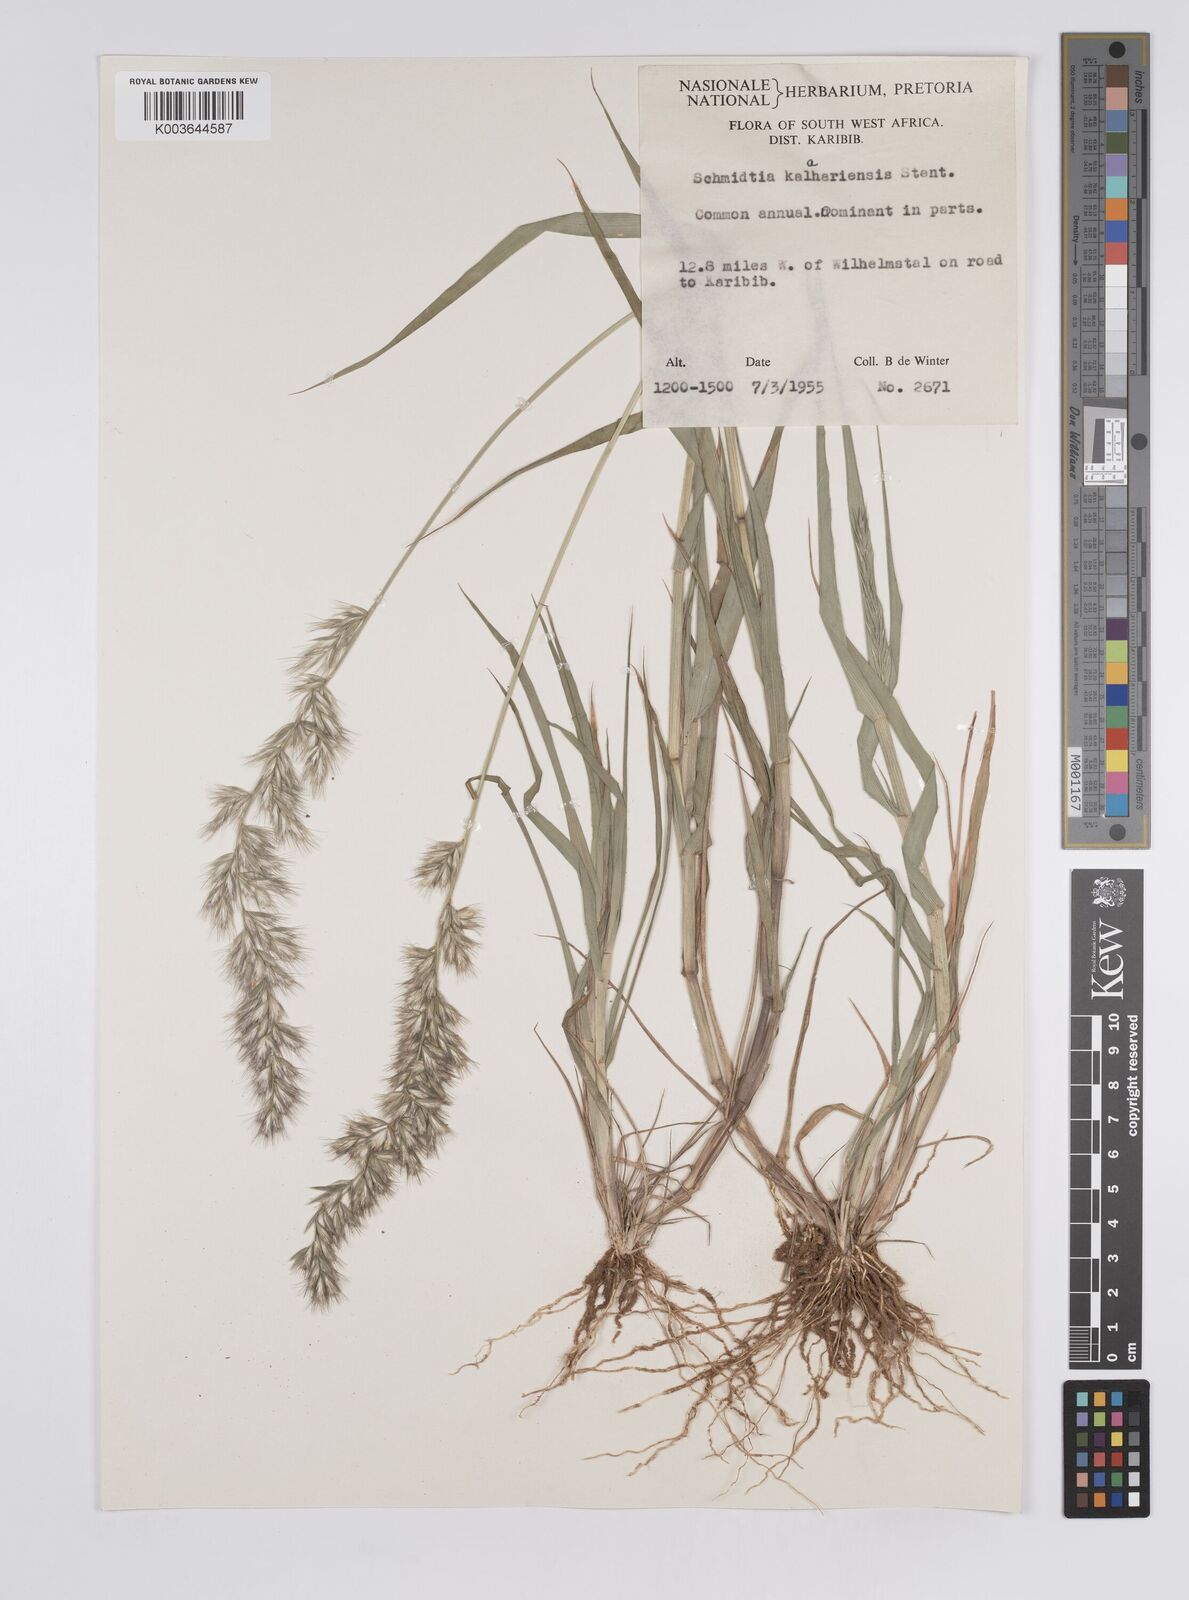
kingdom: Plantae
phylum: Tracheophyta
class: Liliopsida
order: Poales
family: Poaceae
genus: Schmidtia
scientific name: Schmidtia kalahariensis
